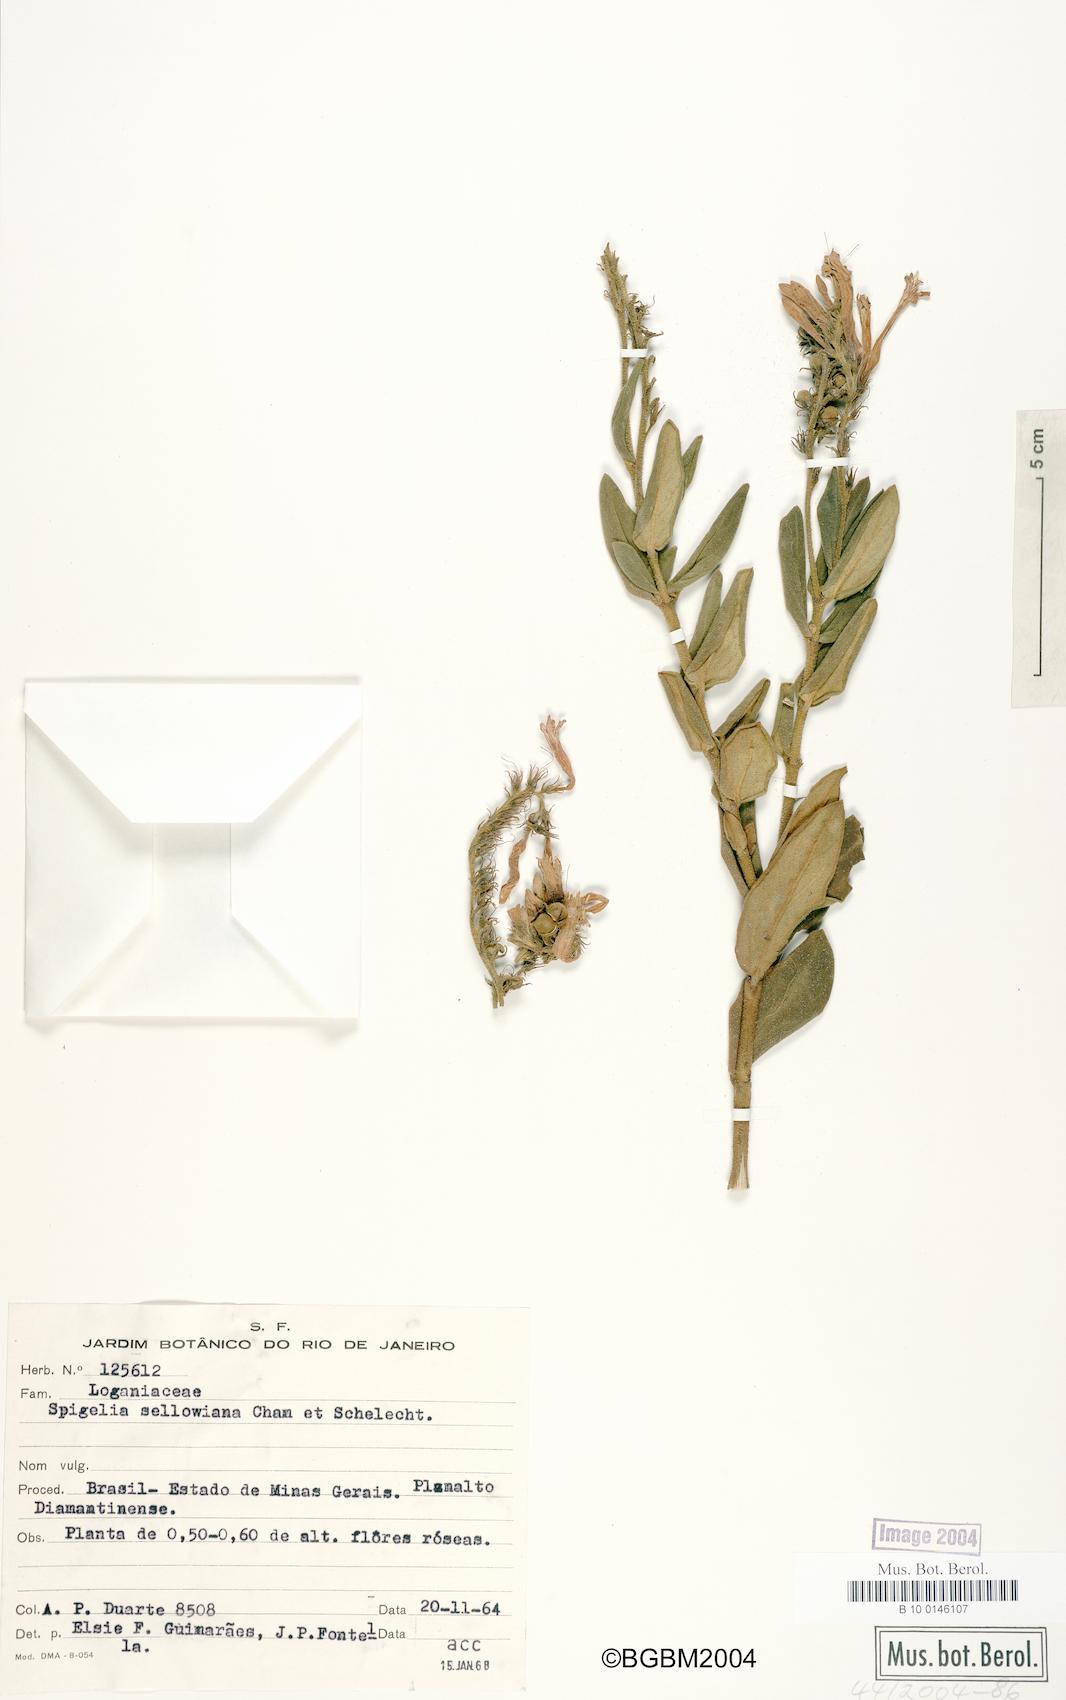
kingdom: Plantae
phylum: Tracheophyta
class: Magnoliopsida
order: Gentianales
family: Loganiaceae
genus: Spigelia
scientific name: Spigelia sellowiana
